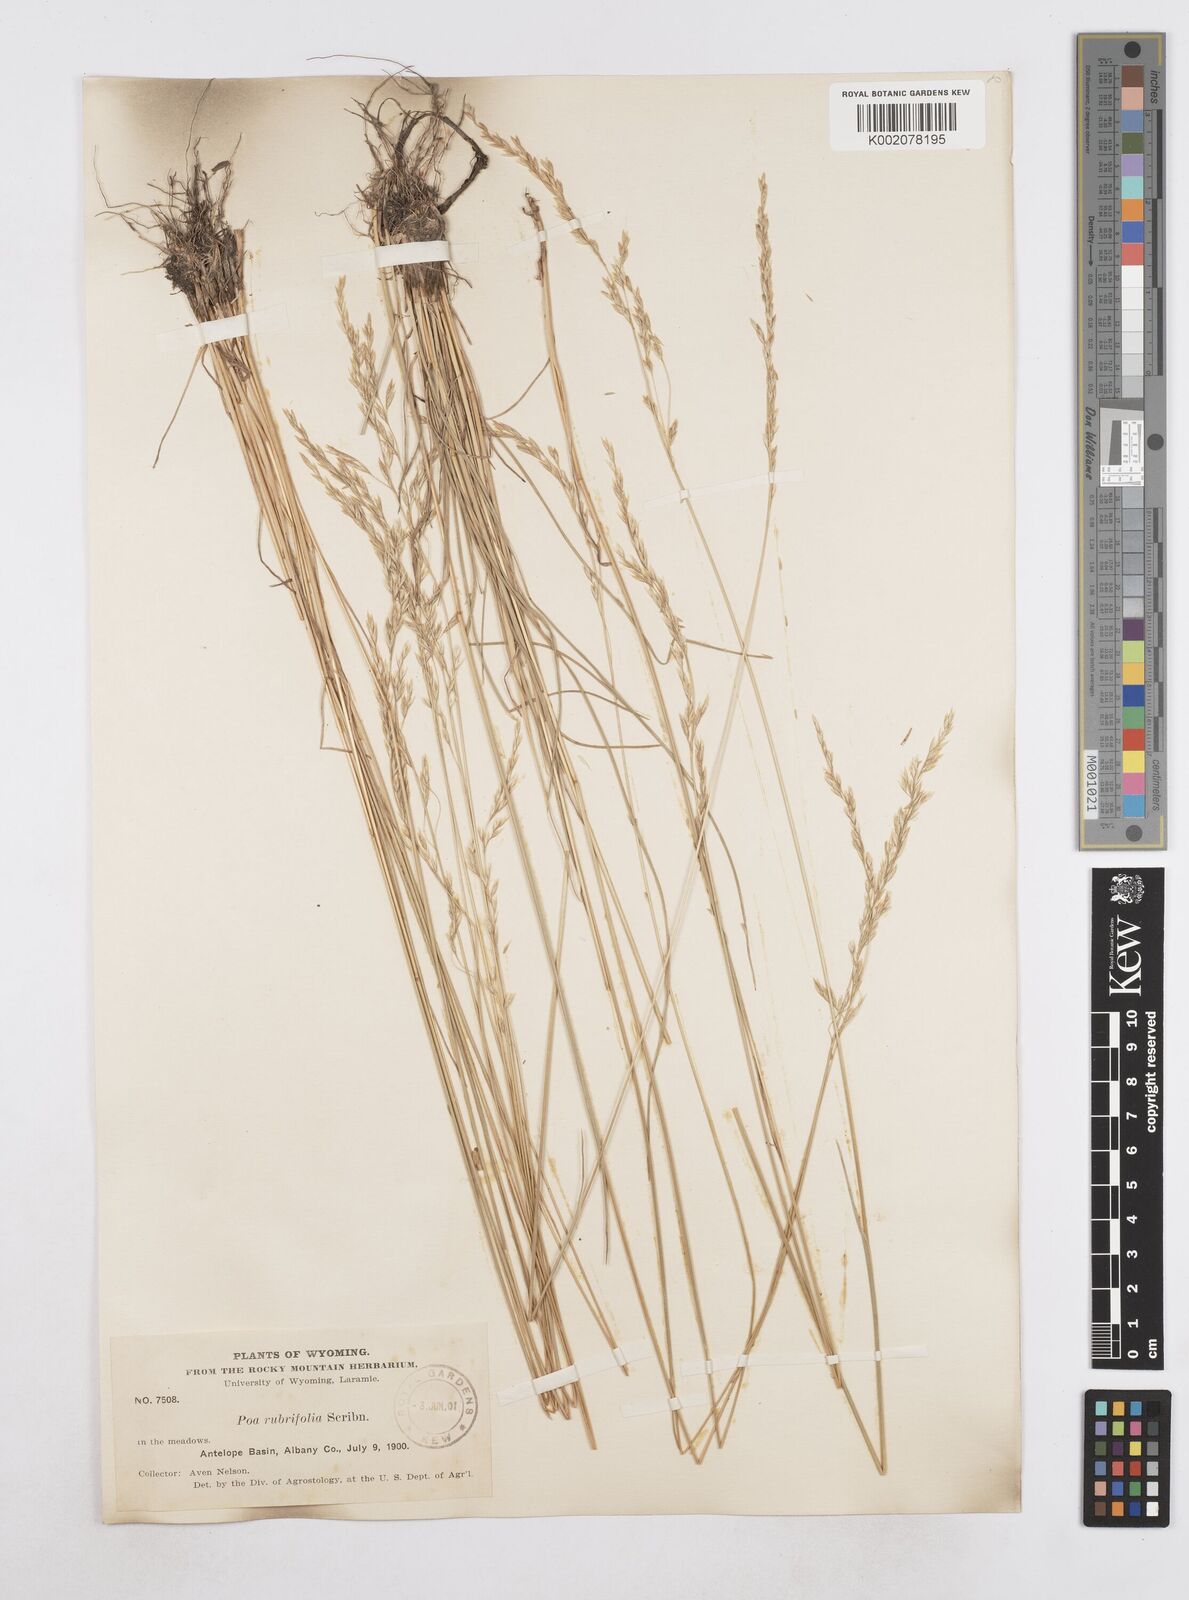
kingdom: Plantae
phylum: Tracheophyta
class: Liliopsida
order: Poales
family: Poaceae
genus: Poa
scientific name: Poa
